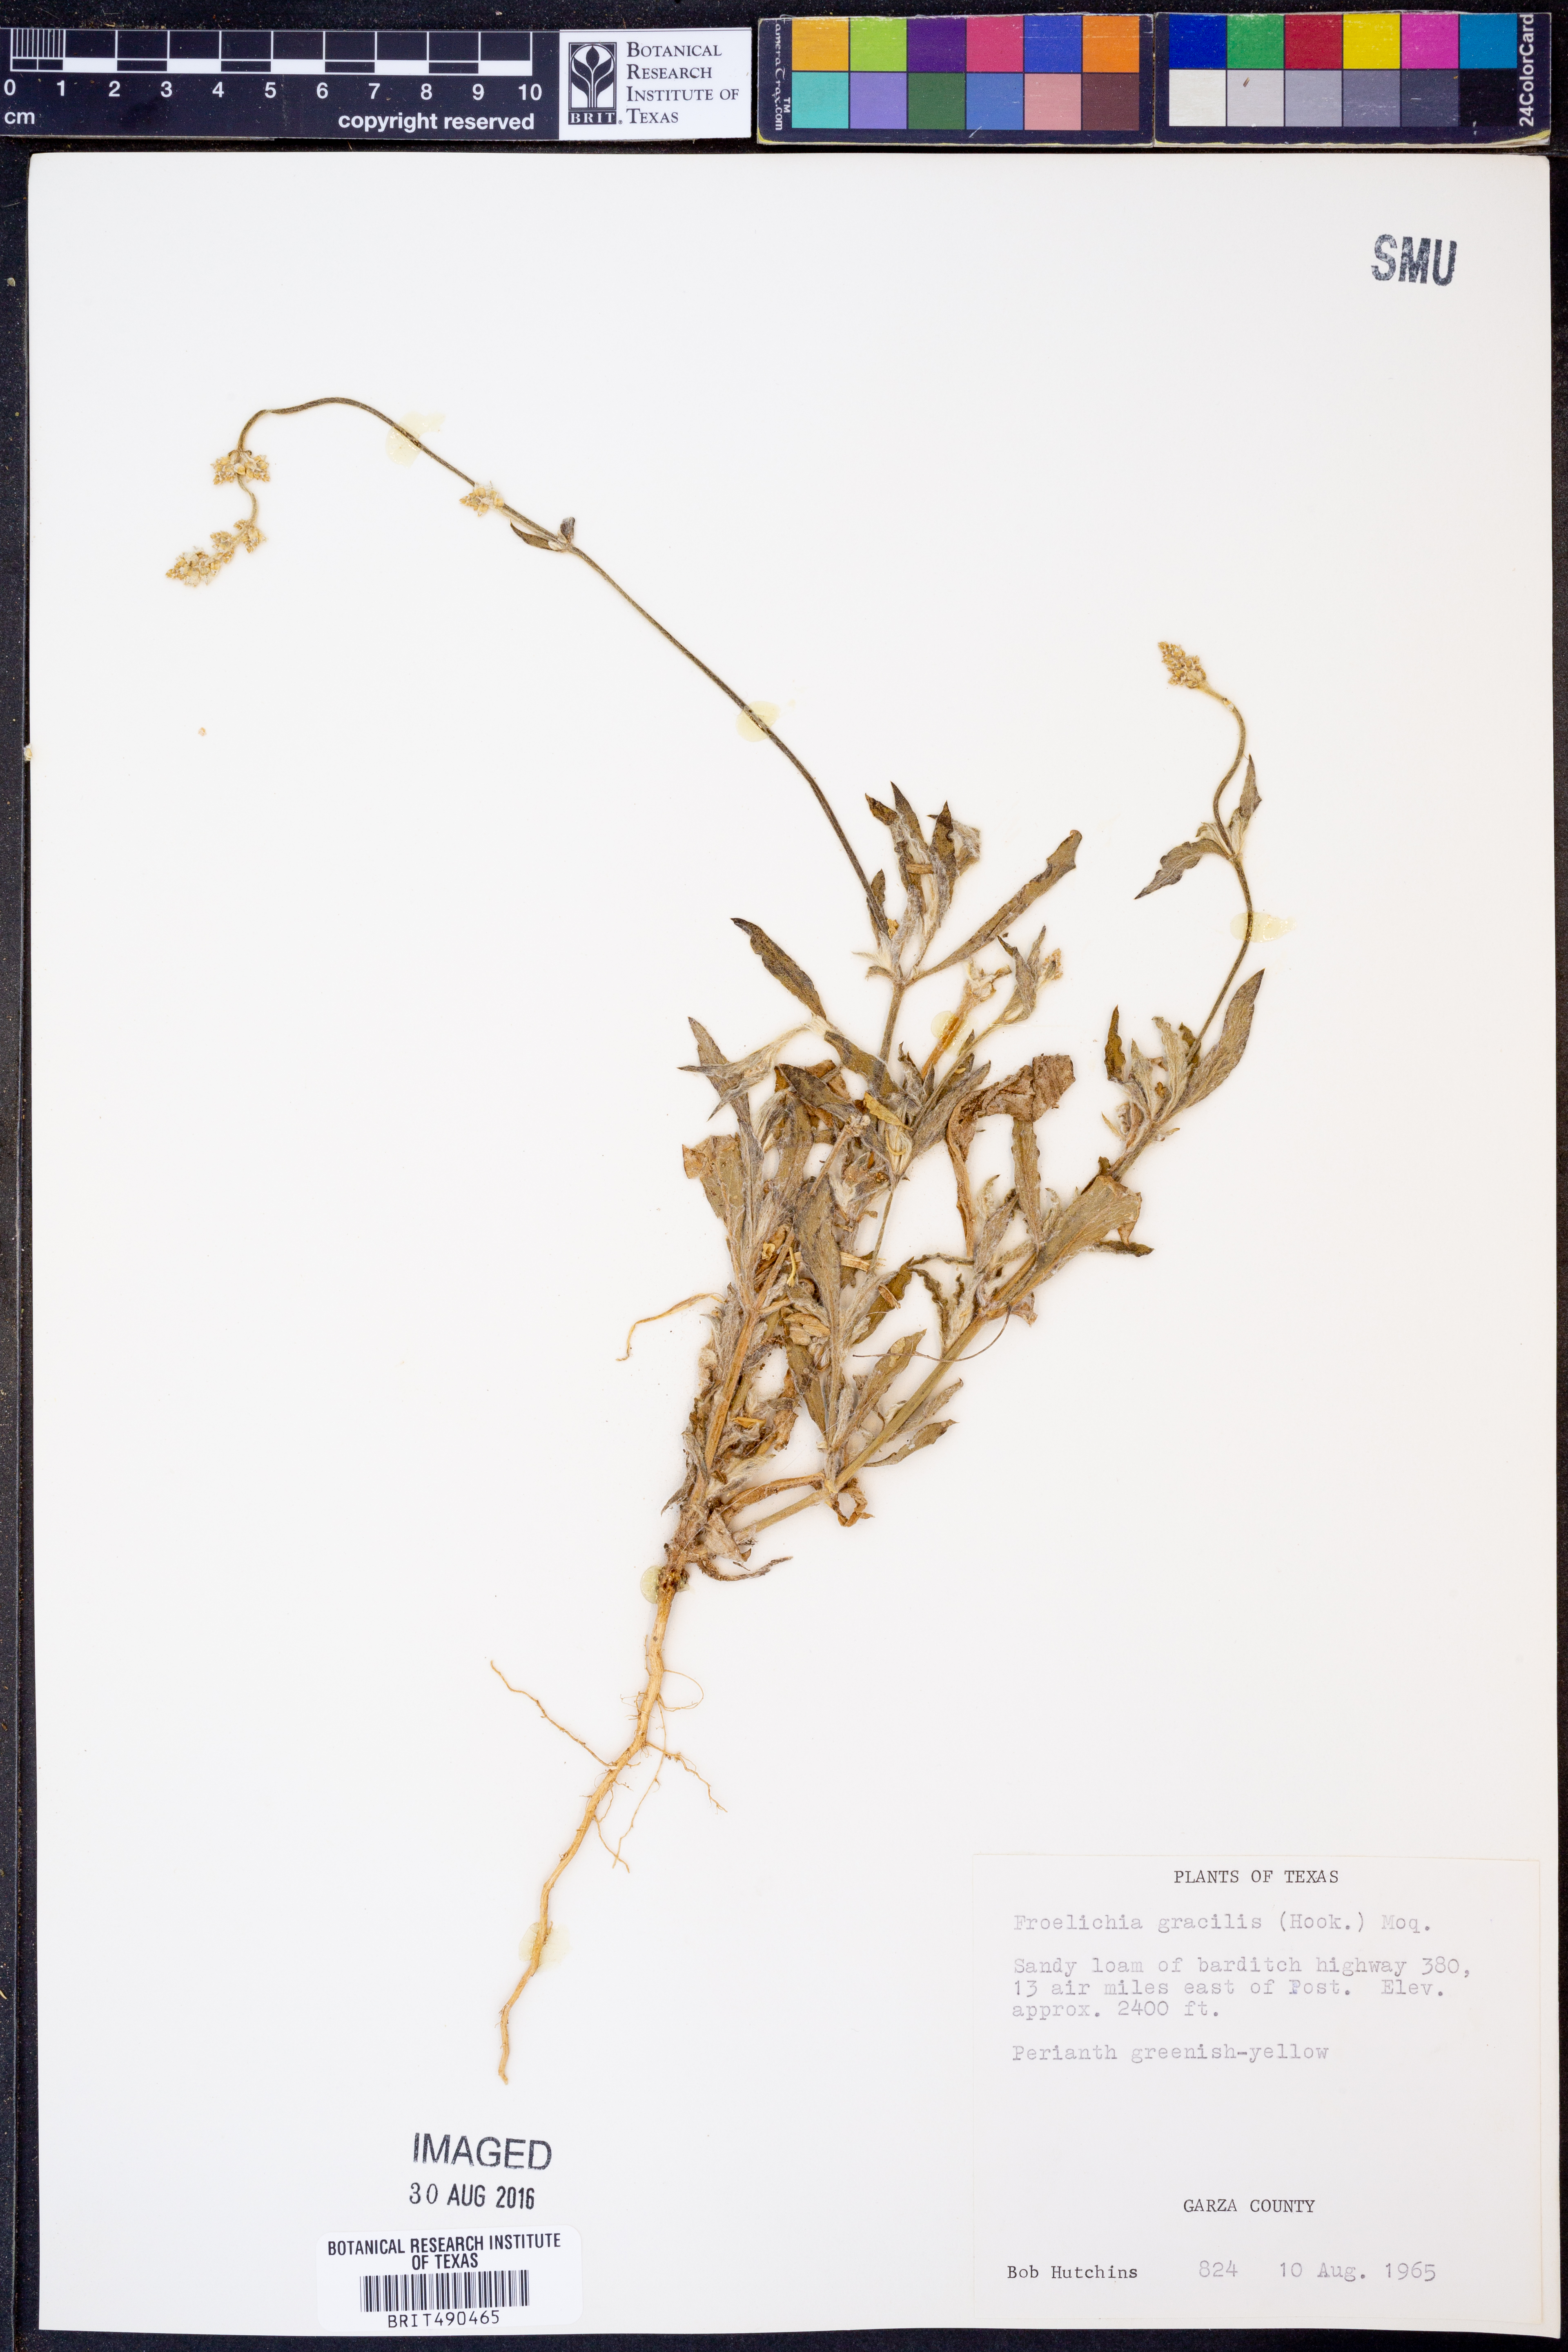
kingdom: Plantae
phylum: Tracheophyta
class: Magnoliopsida
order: Caryophyllales
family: Amaranthaceae
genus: Froelichia
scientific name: Froelichia gracilis
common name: Slender cottonweed
